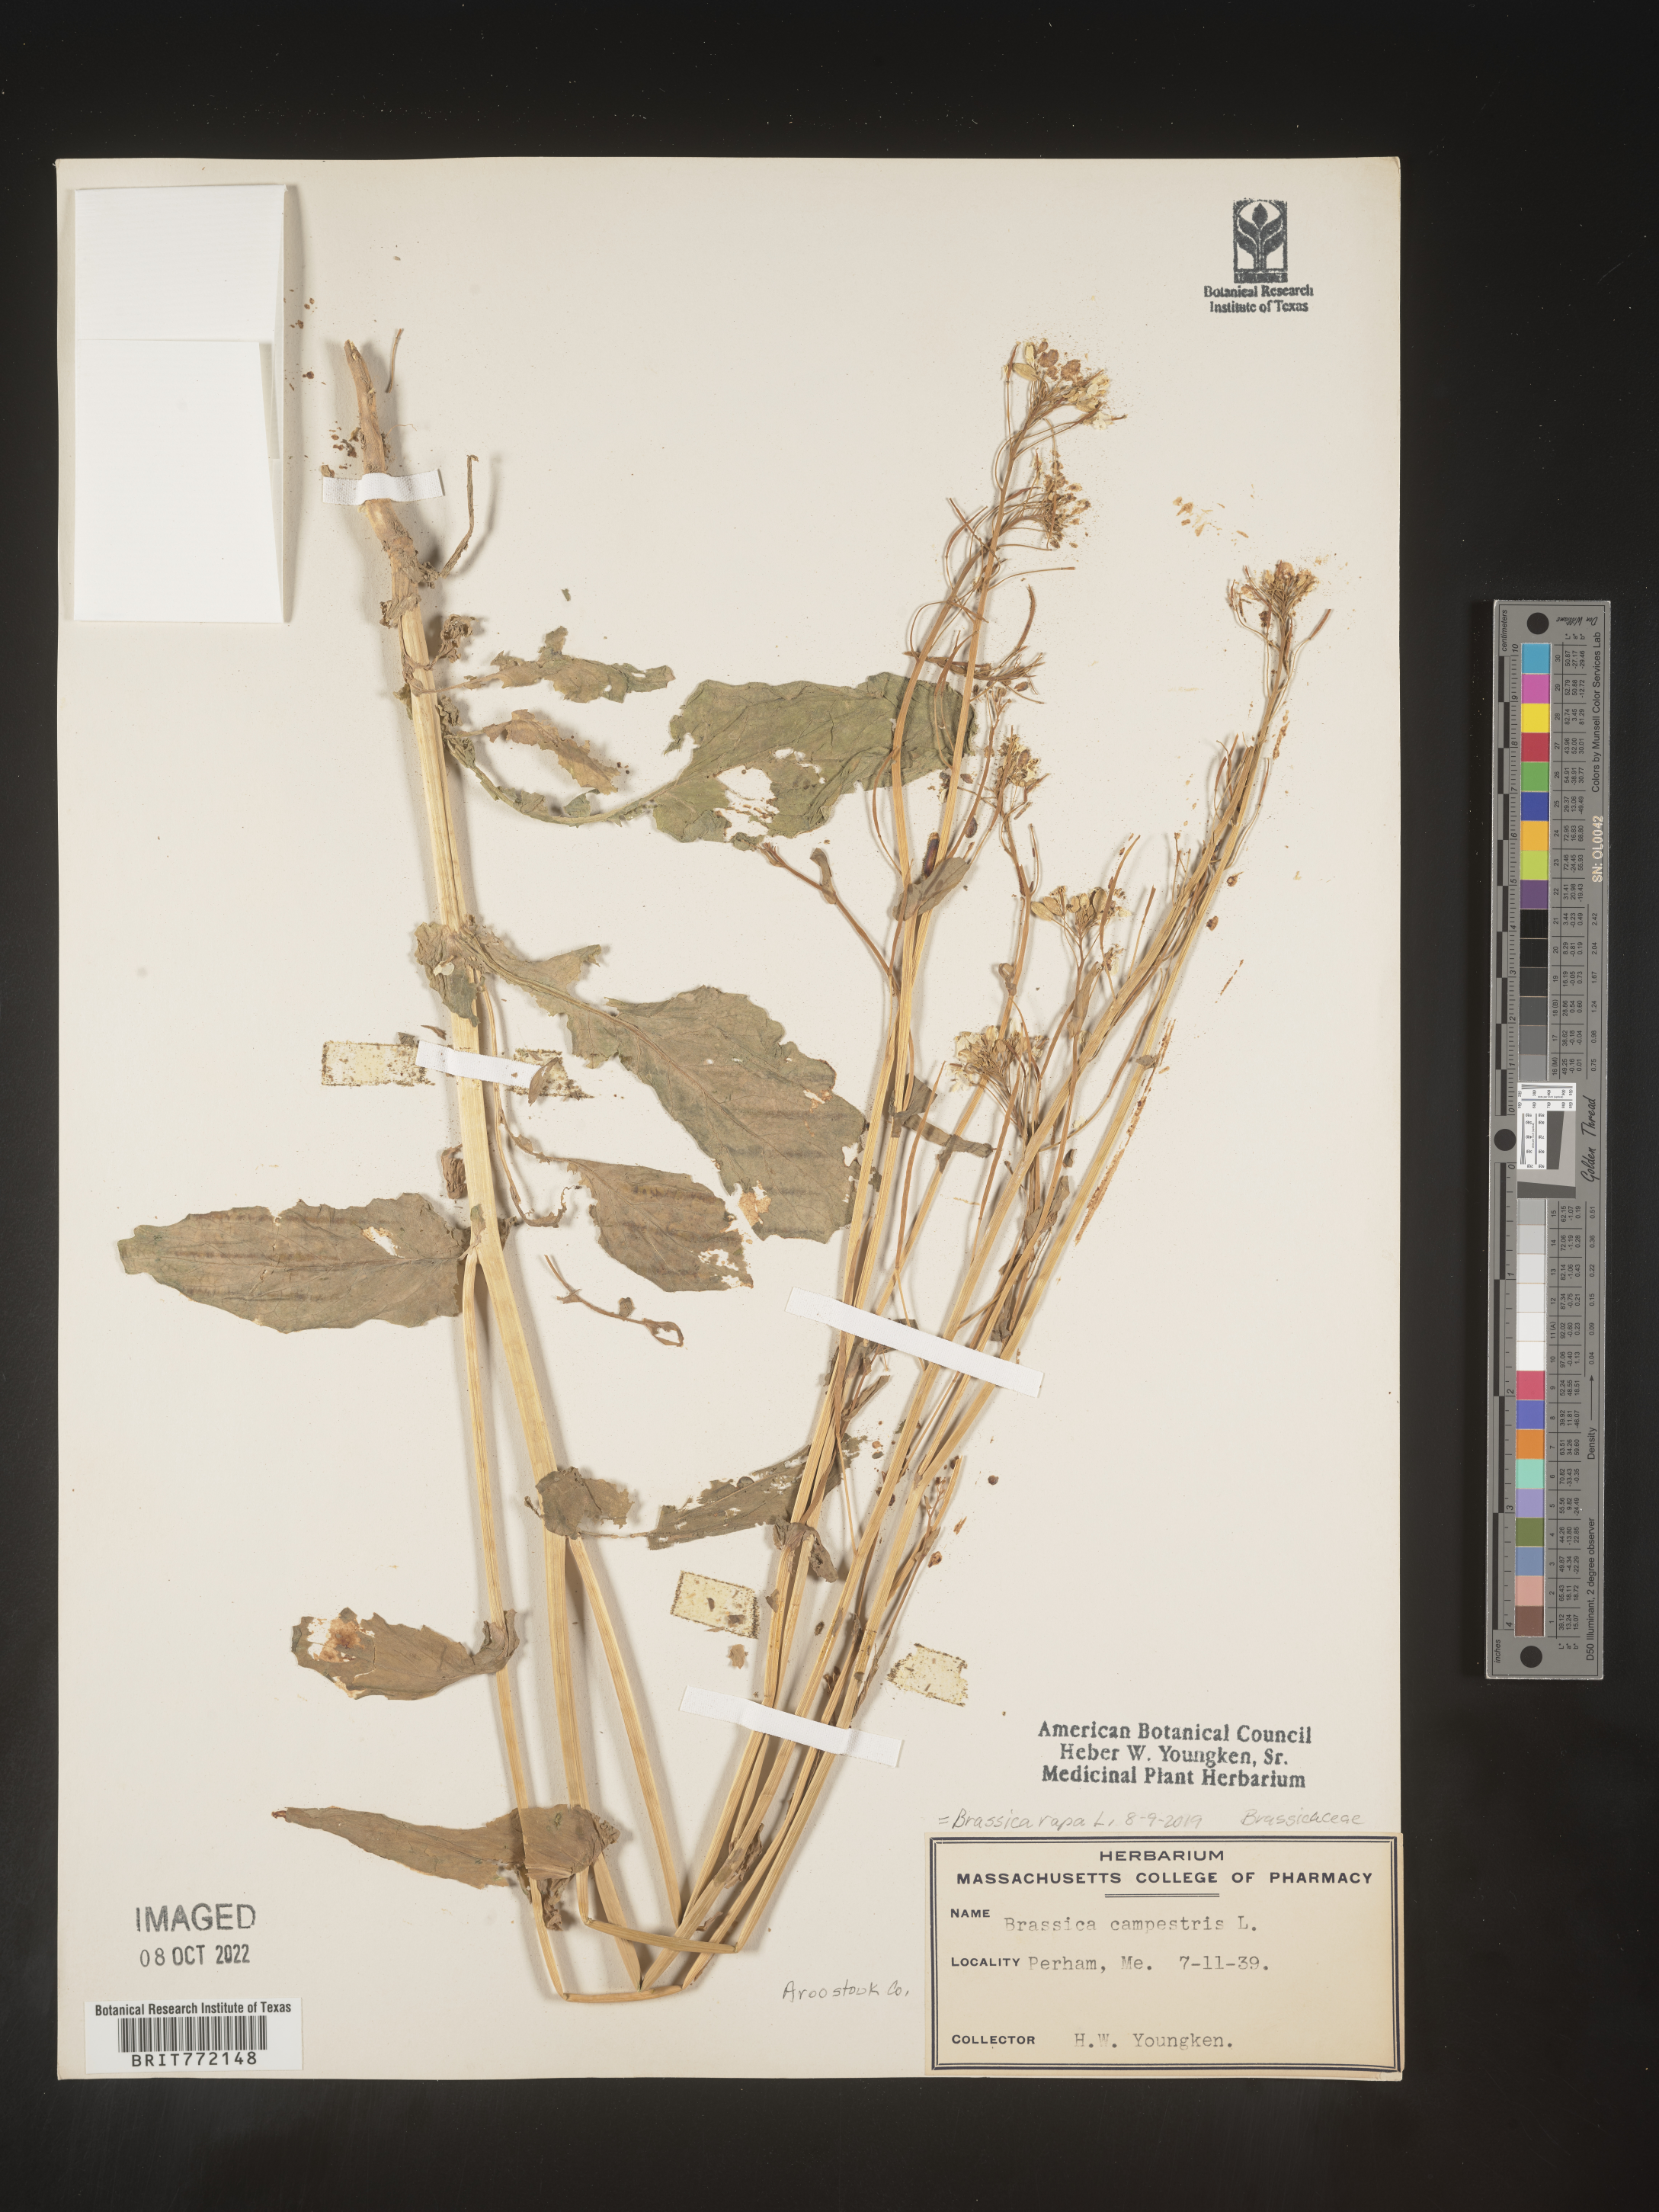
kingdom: Plantae
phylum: Tracheophyta
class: Magnoliopsida
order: Brassicales
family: Brassicaceae
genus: Brassica
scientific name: Brassica rapa
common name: Field mustard
